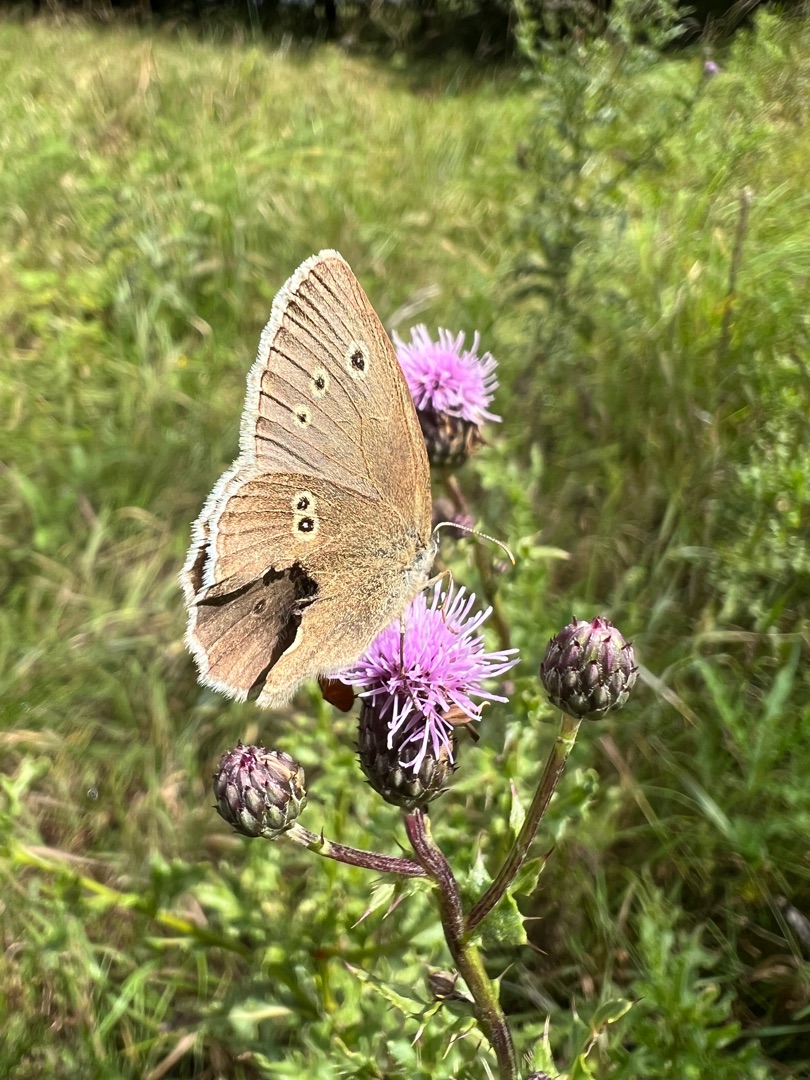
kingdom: Animalia
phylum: Arthropoda
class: Insecta
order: Lepidoptera
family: Nymphalidae
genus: Aphantopus
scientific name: Aphantopus hyperantus
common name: Engrandøje
